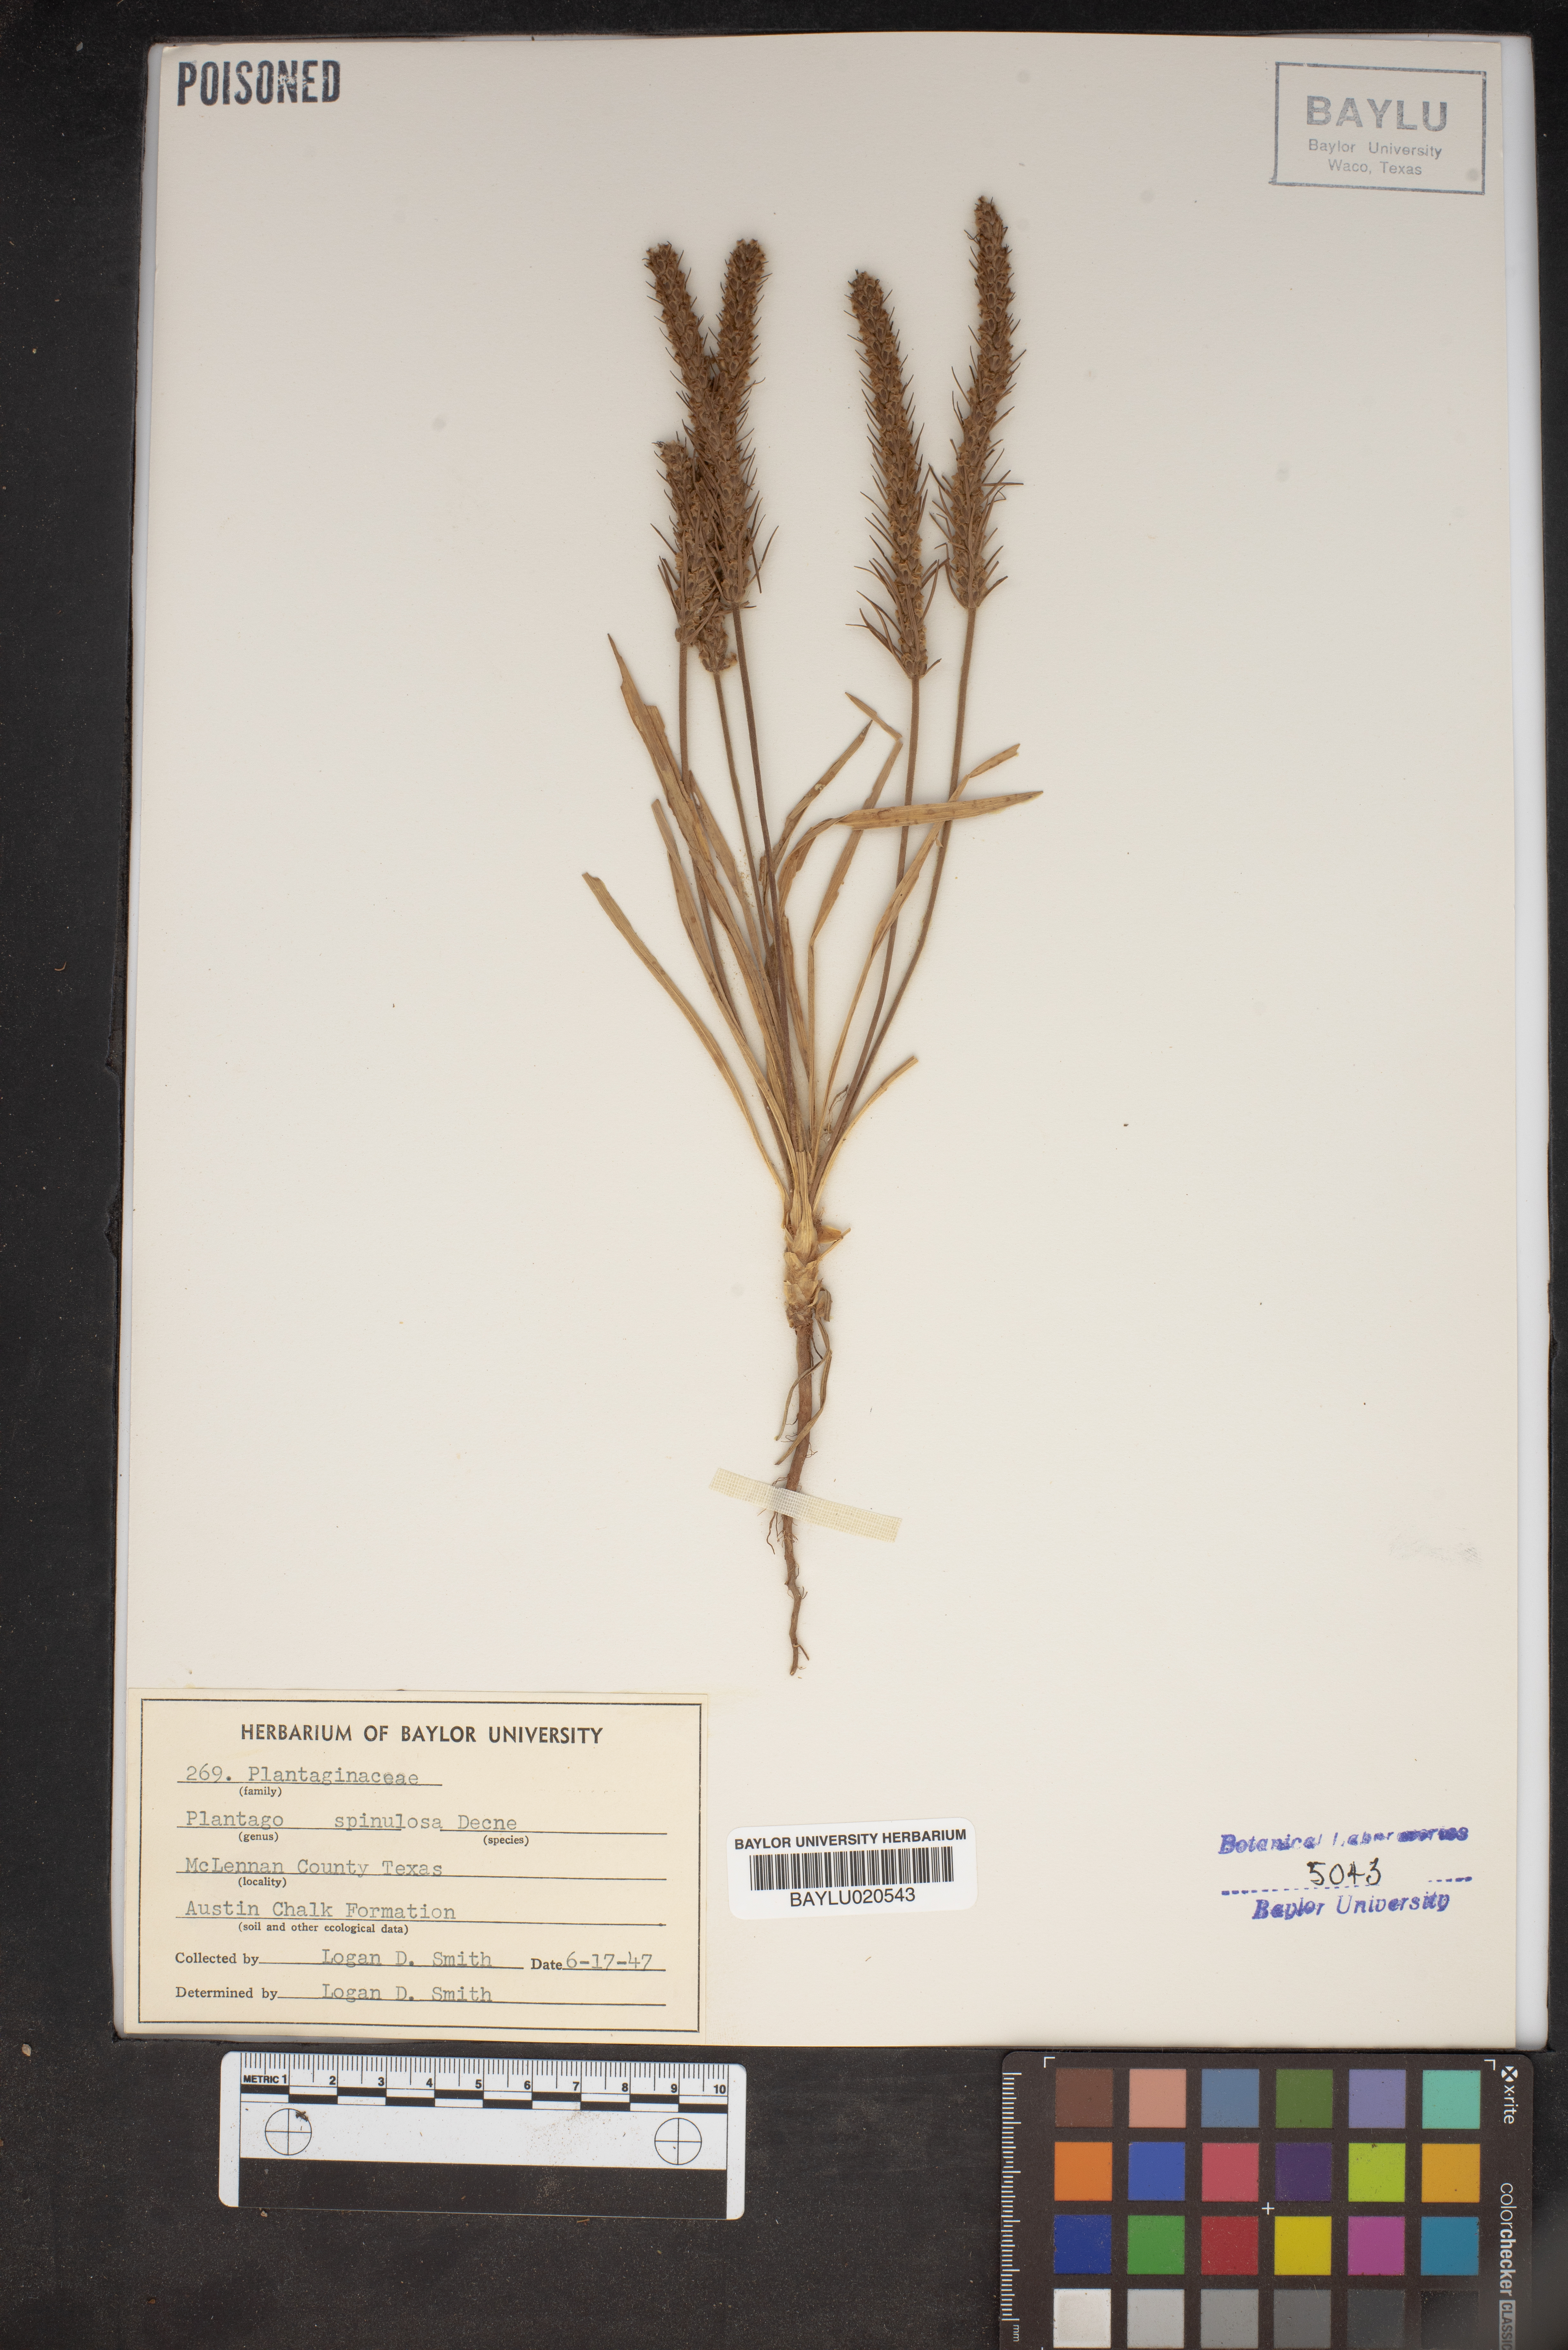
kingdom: Plantae
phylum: Tracheophyta
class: Magnoliopsida
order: Lamiales
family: Plantaginaceae
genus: Plantago
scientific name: Plantago patagonica
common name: Patagonia indian-wheat
